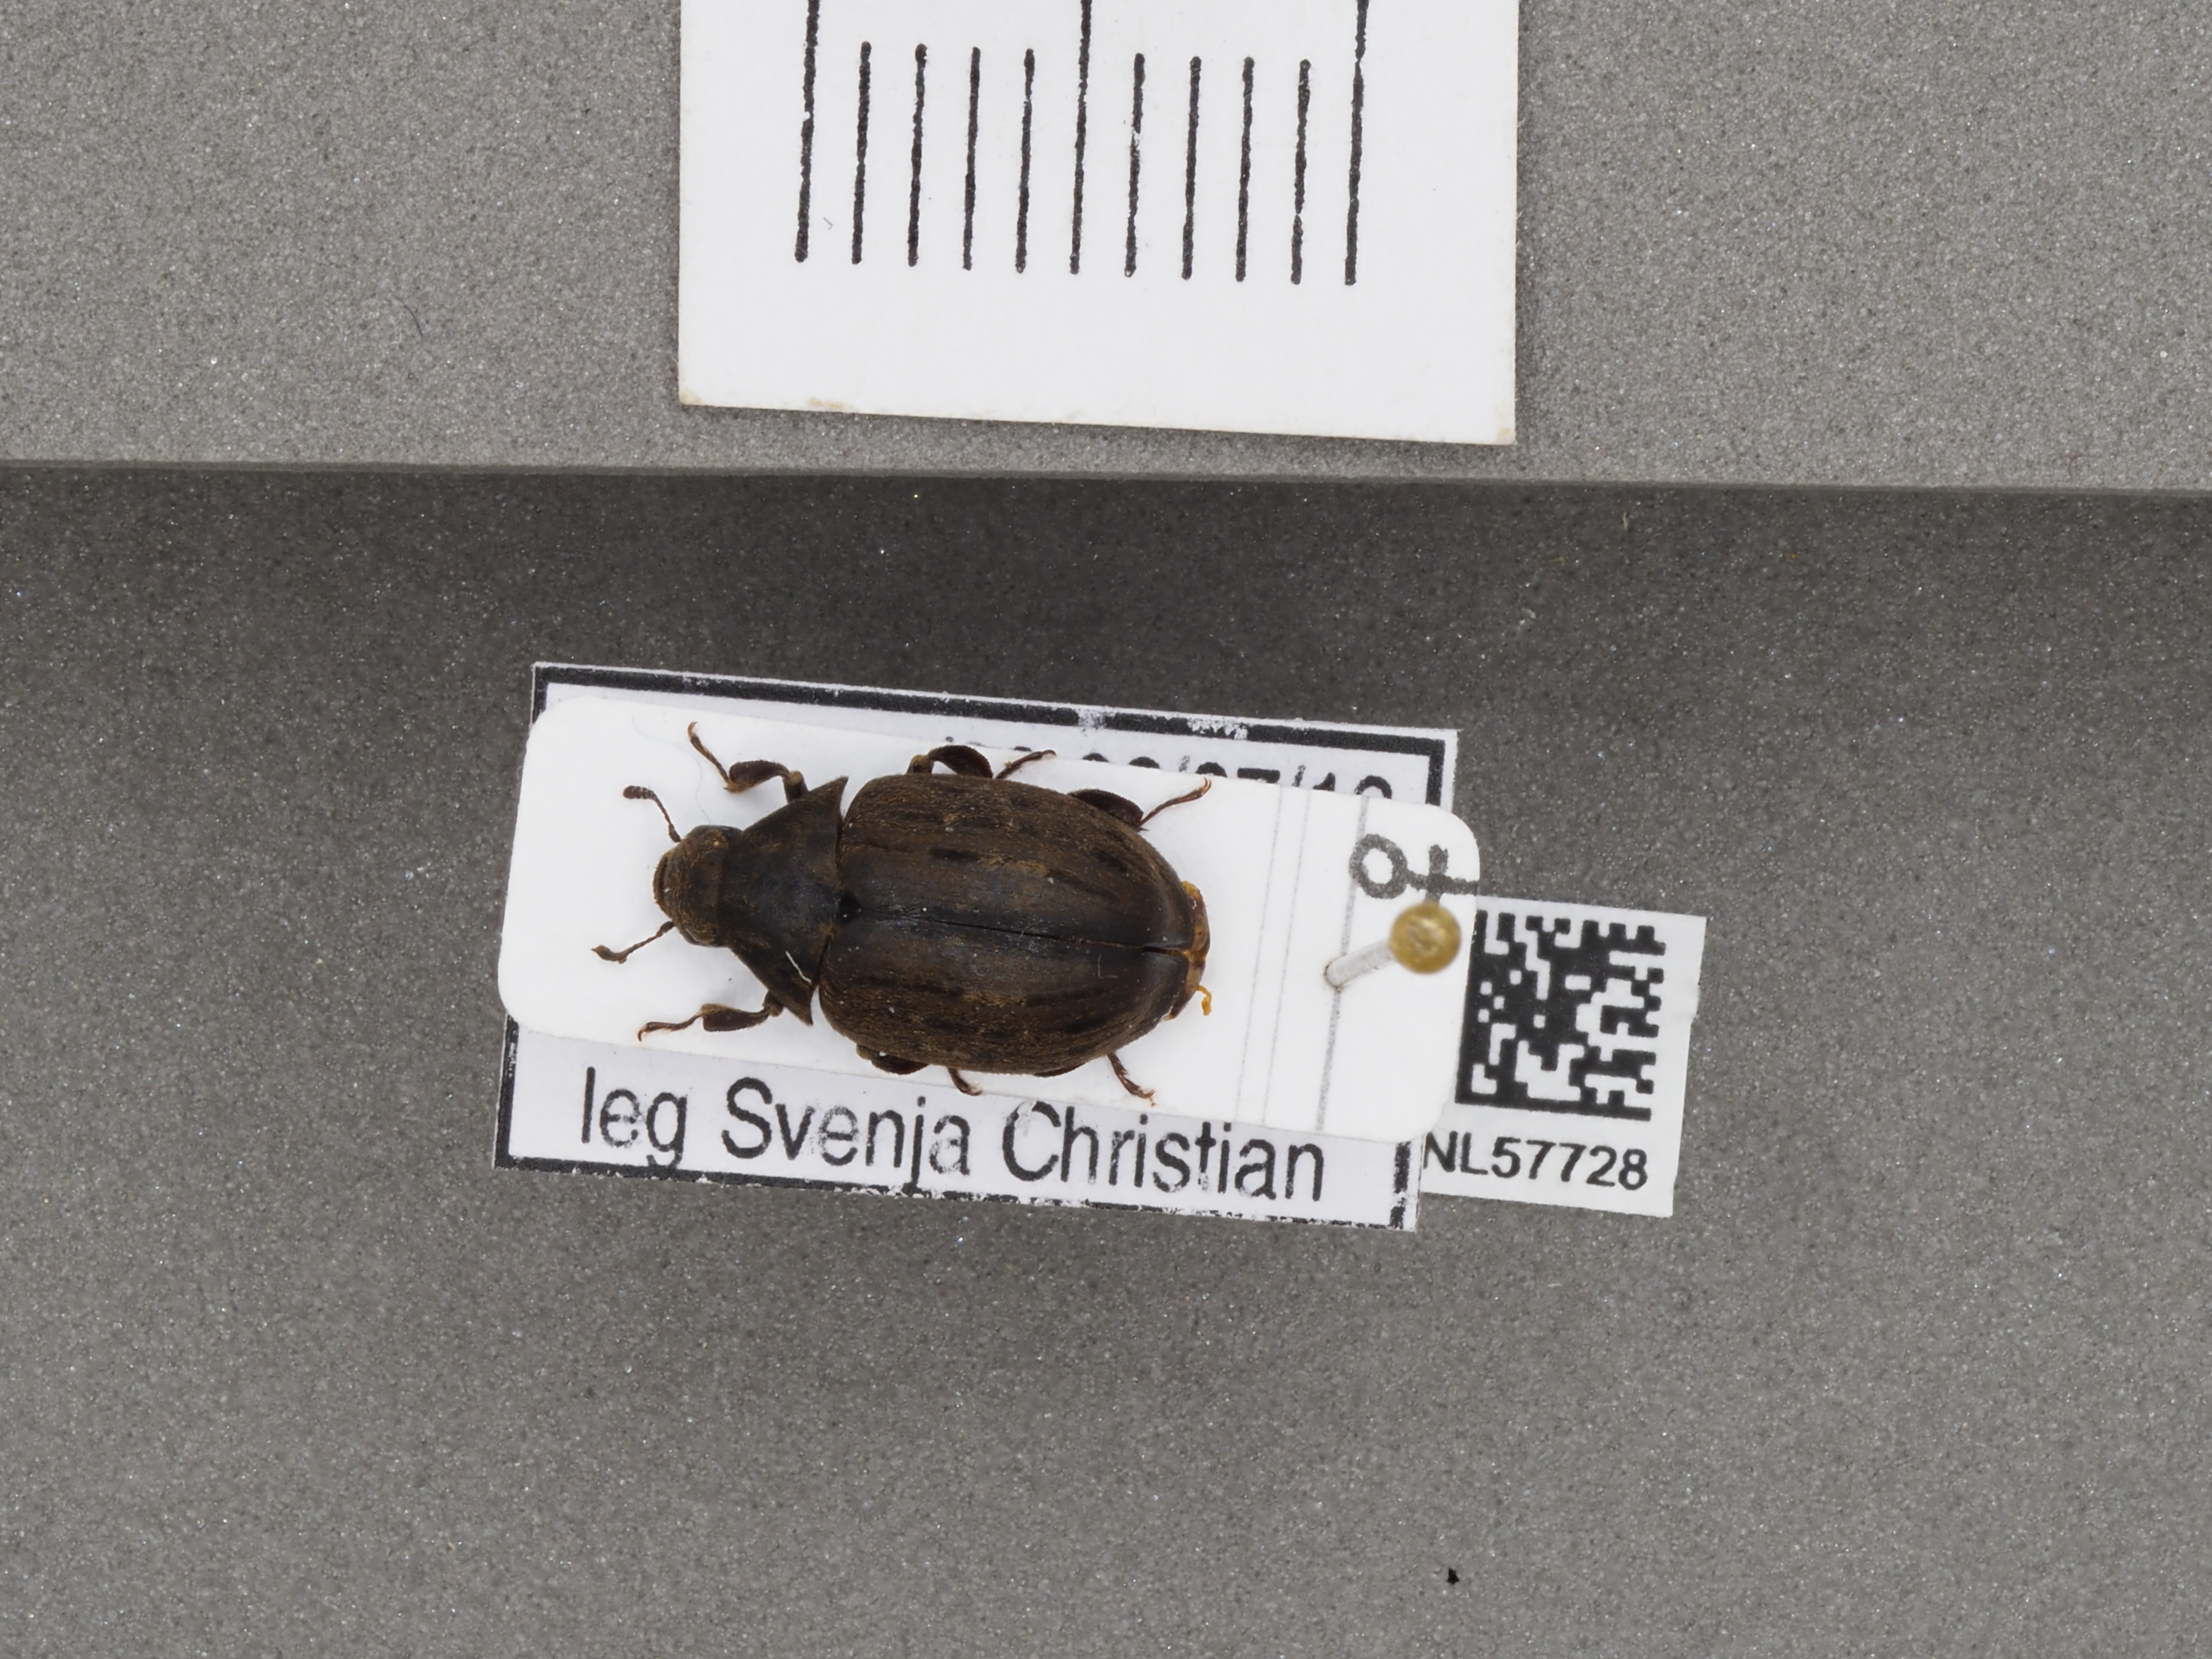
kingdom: Animalia
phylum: Arthropoda
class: Insecta
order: Coleoptera
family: Byrrhidae
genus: Byrrhus
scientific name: Byrrhus pilula
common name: Pill beetle
